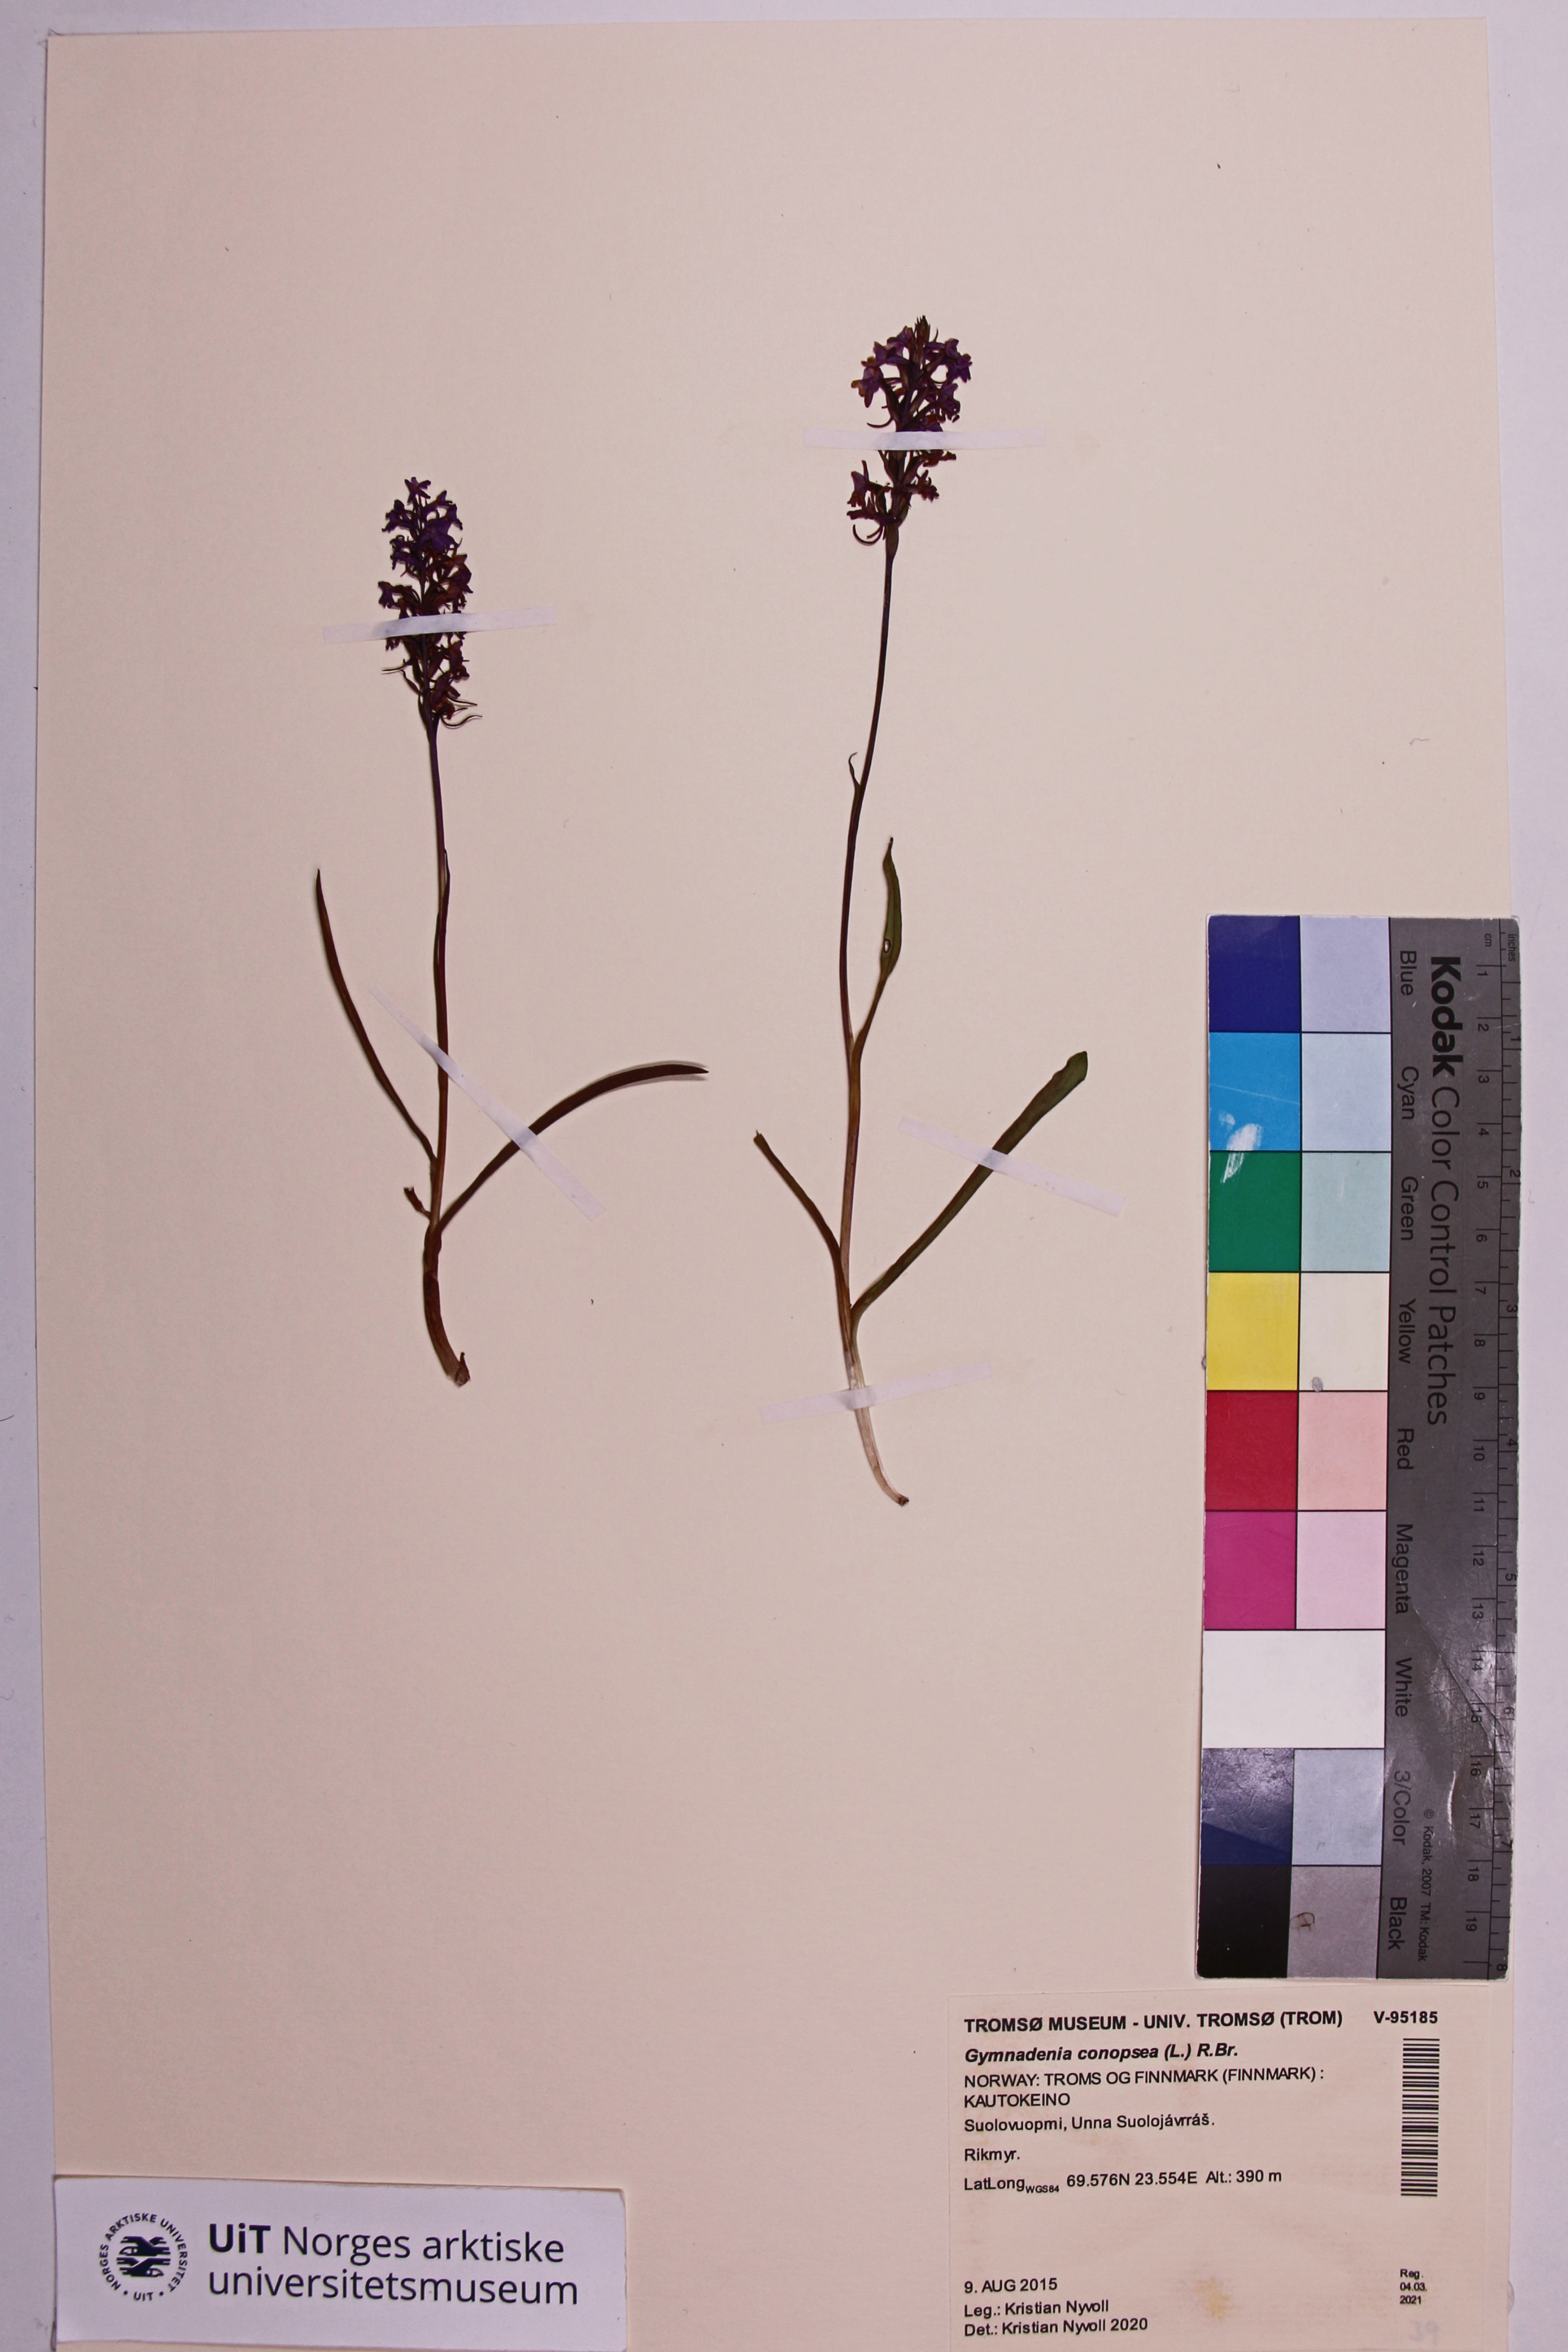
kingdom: Plantae
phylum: Tracheophyta
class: Liliopsida
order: Asparagales
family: Orchidaceae
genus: Gymnadenia
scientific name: Gymnadenia conopsea
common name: Fragrant orchid
